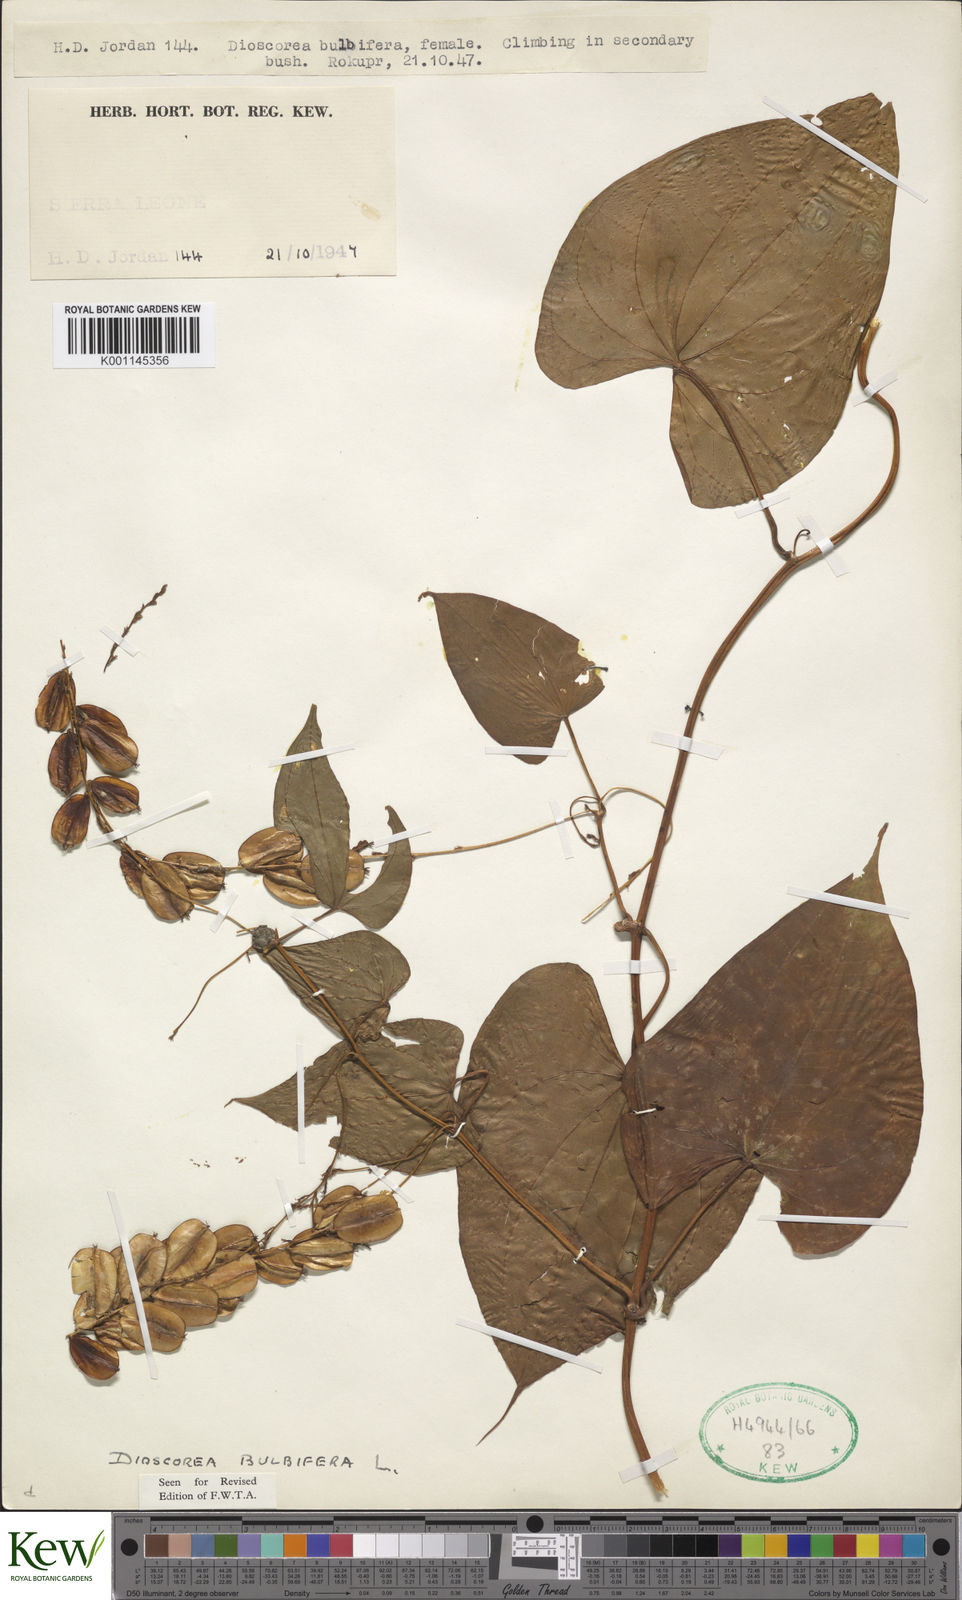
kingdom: Plantae
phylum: Tracheophyta
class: Liliopsida
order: Dioscoreales
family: Dioscoreaceae
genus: Dioscorea
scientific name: Dioscorea bulbifera
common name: Air yam
